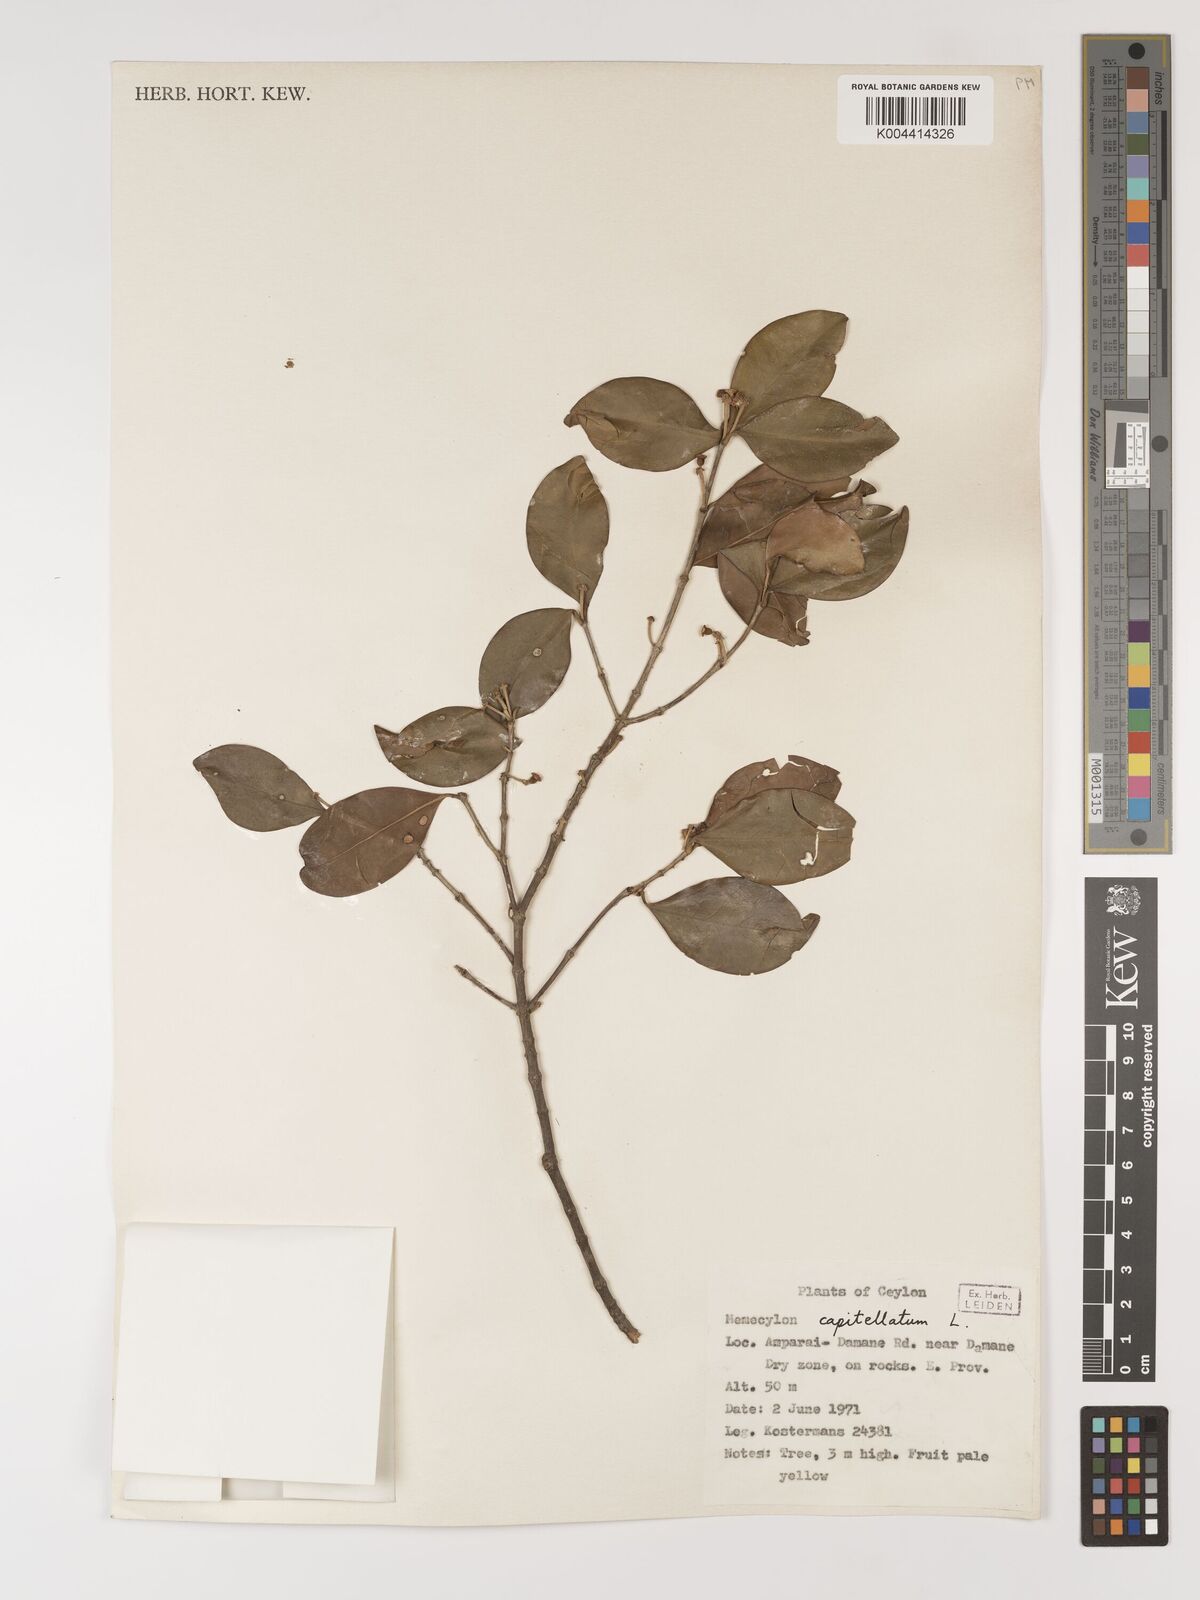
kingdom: Plantae
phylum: Tracheophyta
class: Magnoliopsida
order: Myrtales
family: Melastomataceae
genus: Memecylon
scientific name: Memecylon capitellatum
